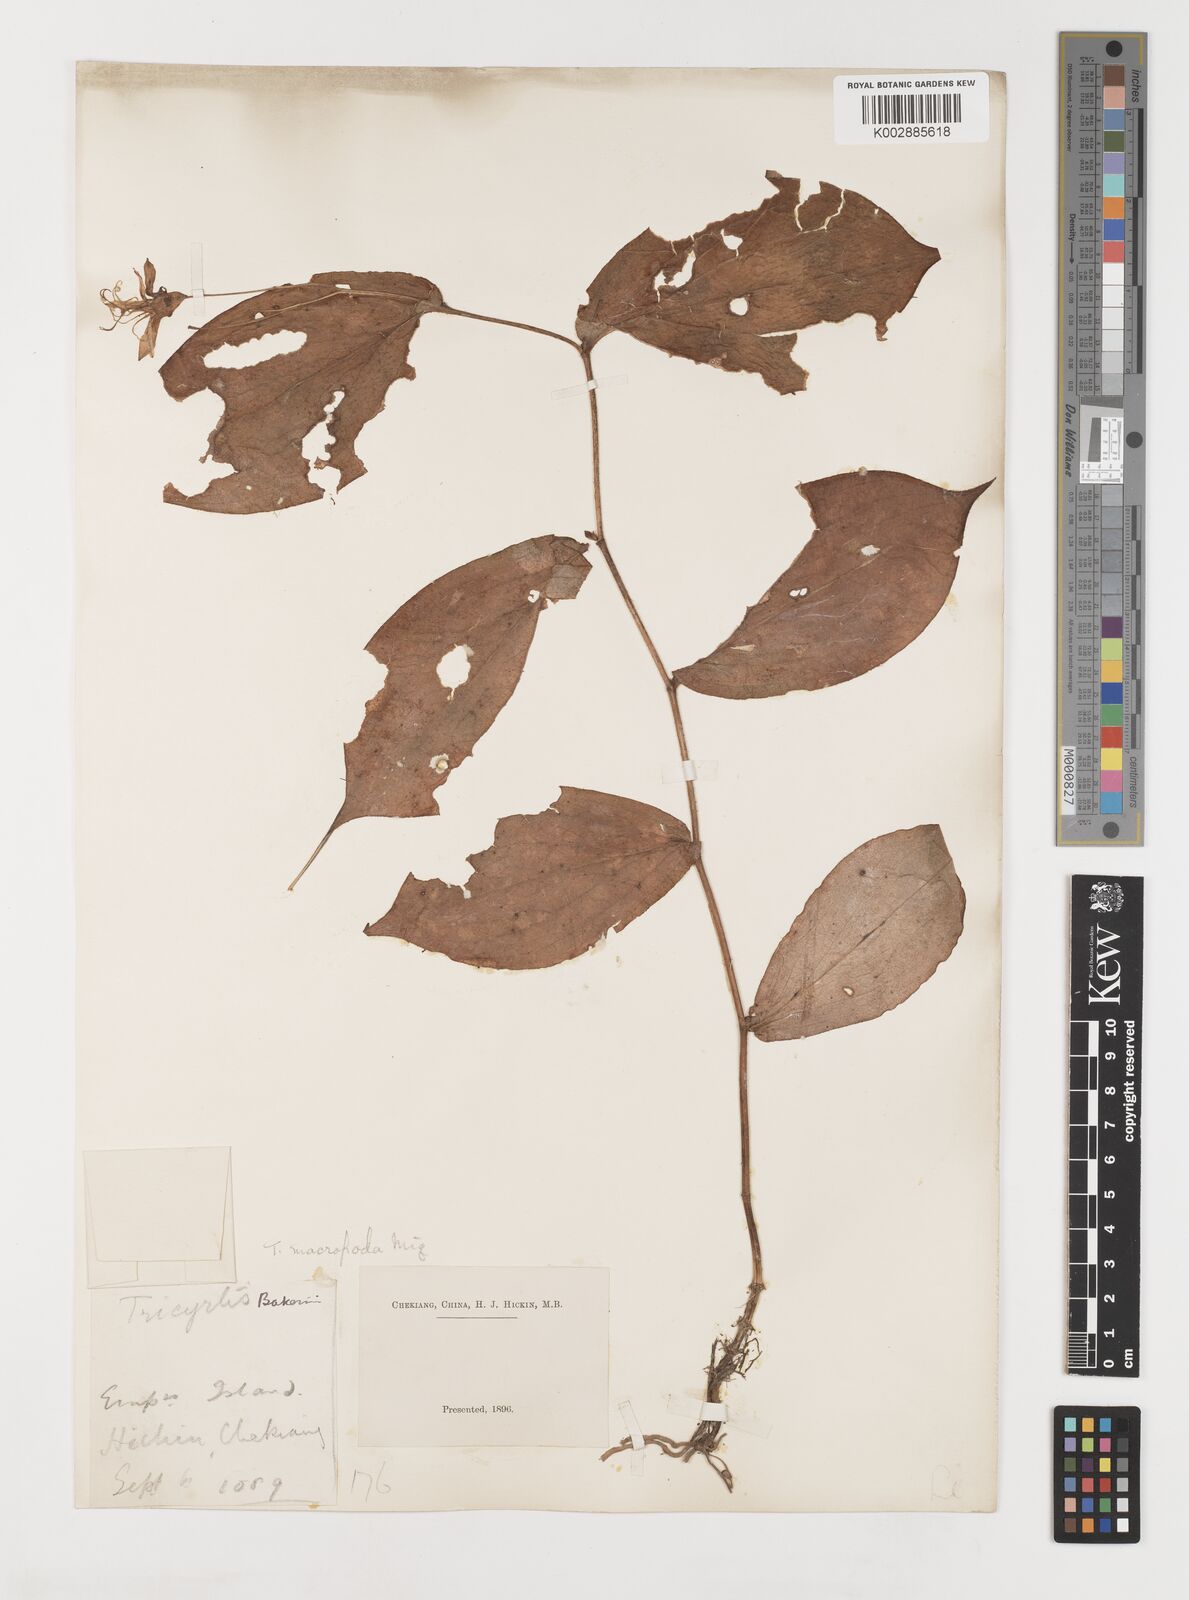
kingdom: Plantae
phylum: Tracheophyta
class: Liliopsida
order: Liliales
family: Liliaceae
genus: Tricyrtis
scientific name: Tricyrtis latifolia
